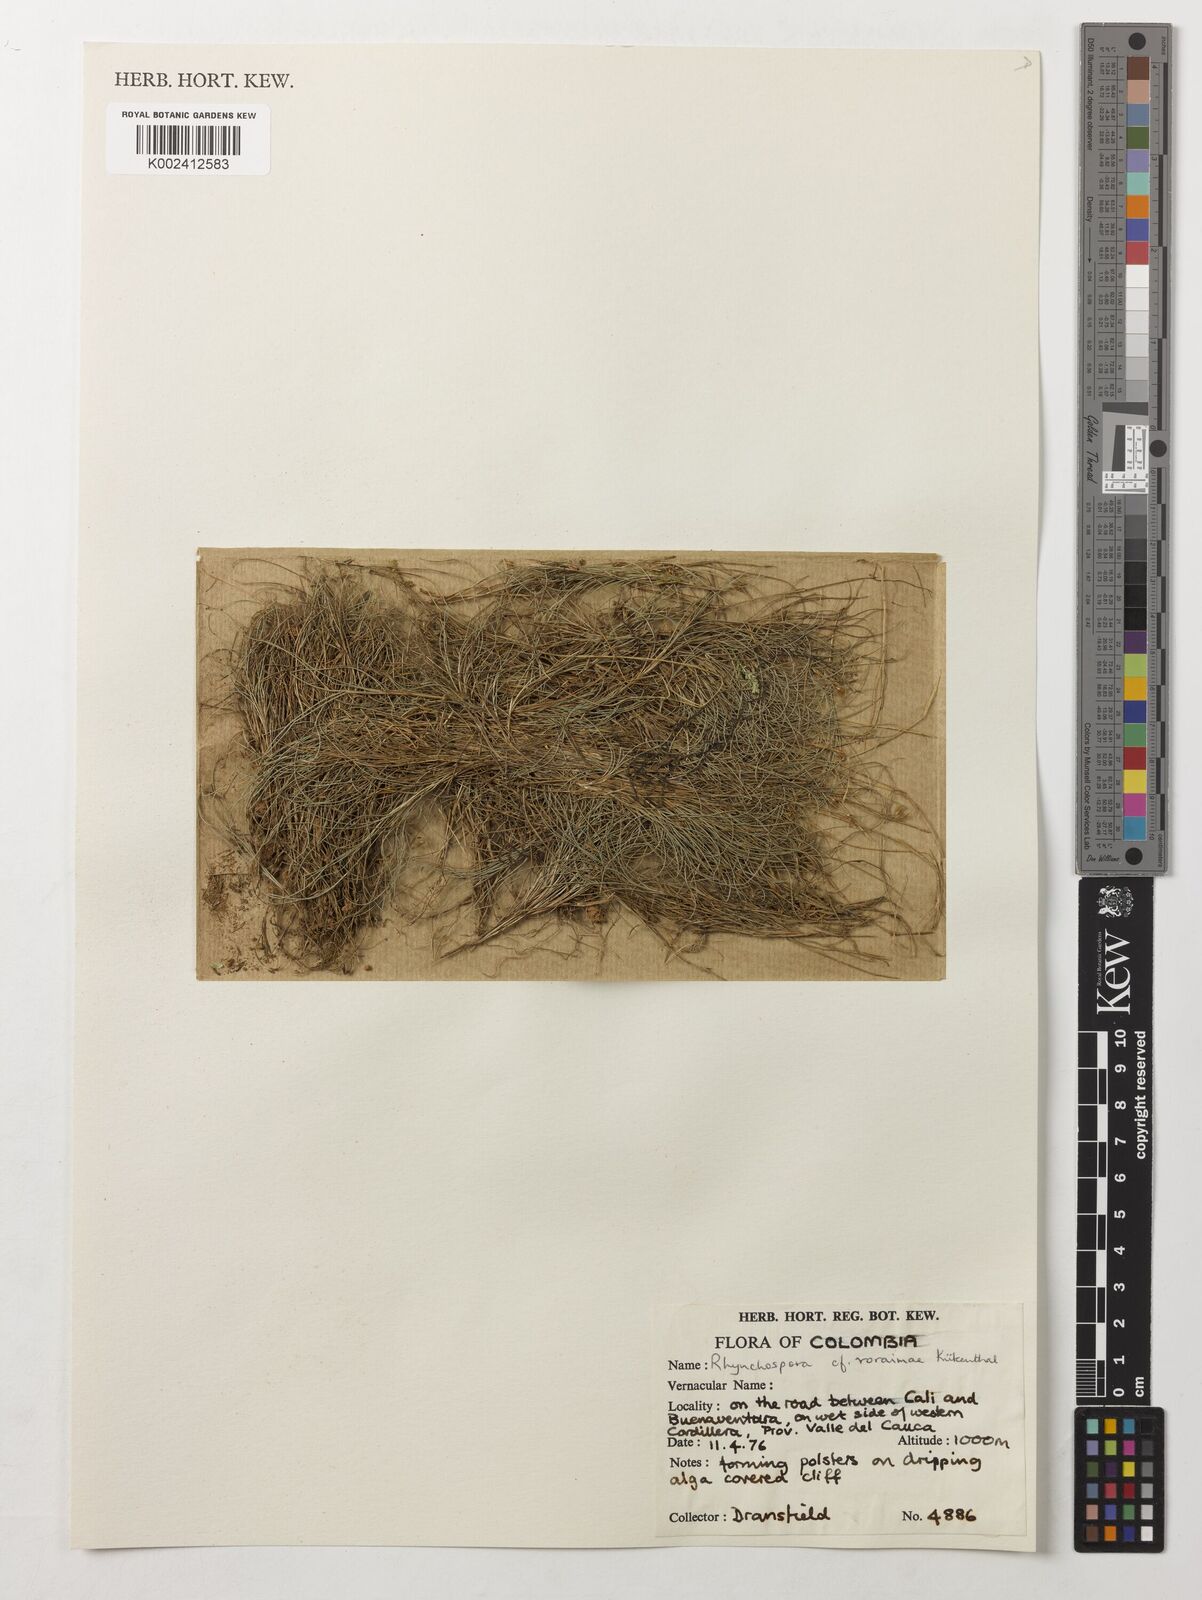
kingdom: Plantae
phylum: Tracheophyta
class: Liliopsida
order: Poales
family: Cyperaceae
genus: Rhynchospora
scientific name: Rhynchospora roraimae
